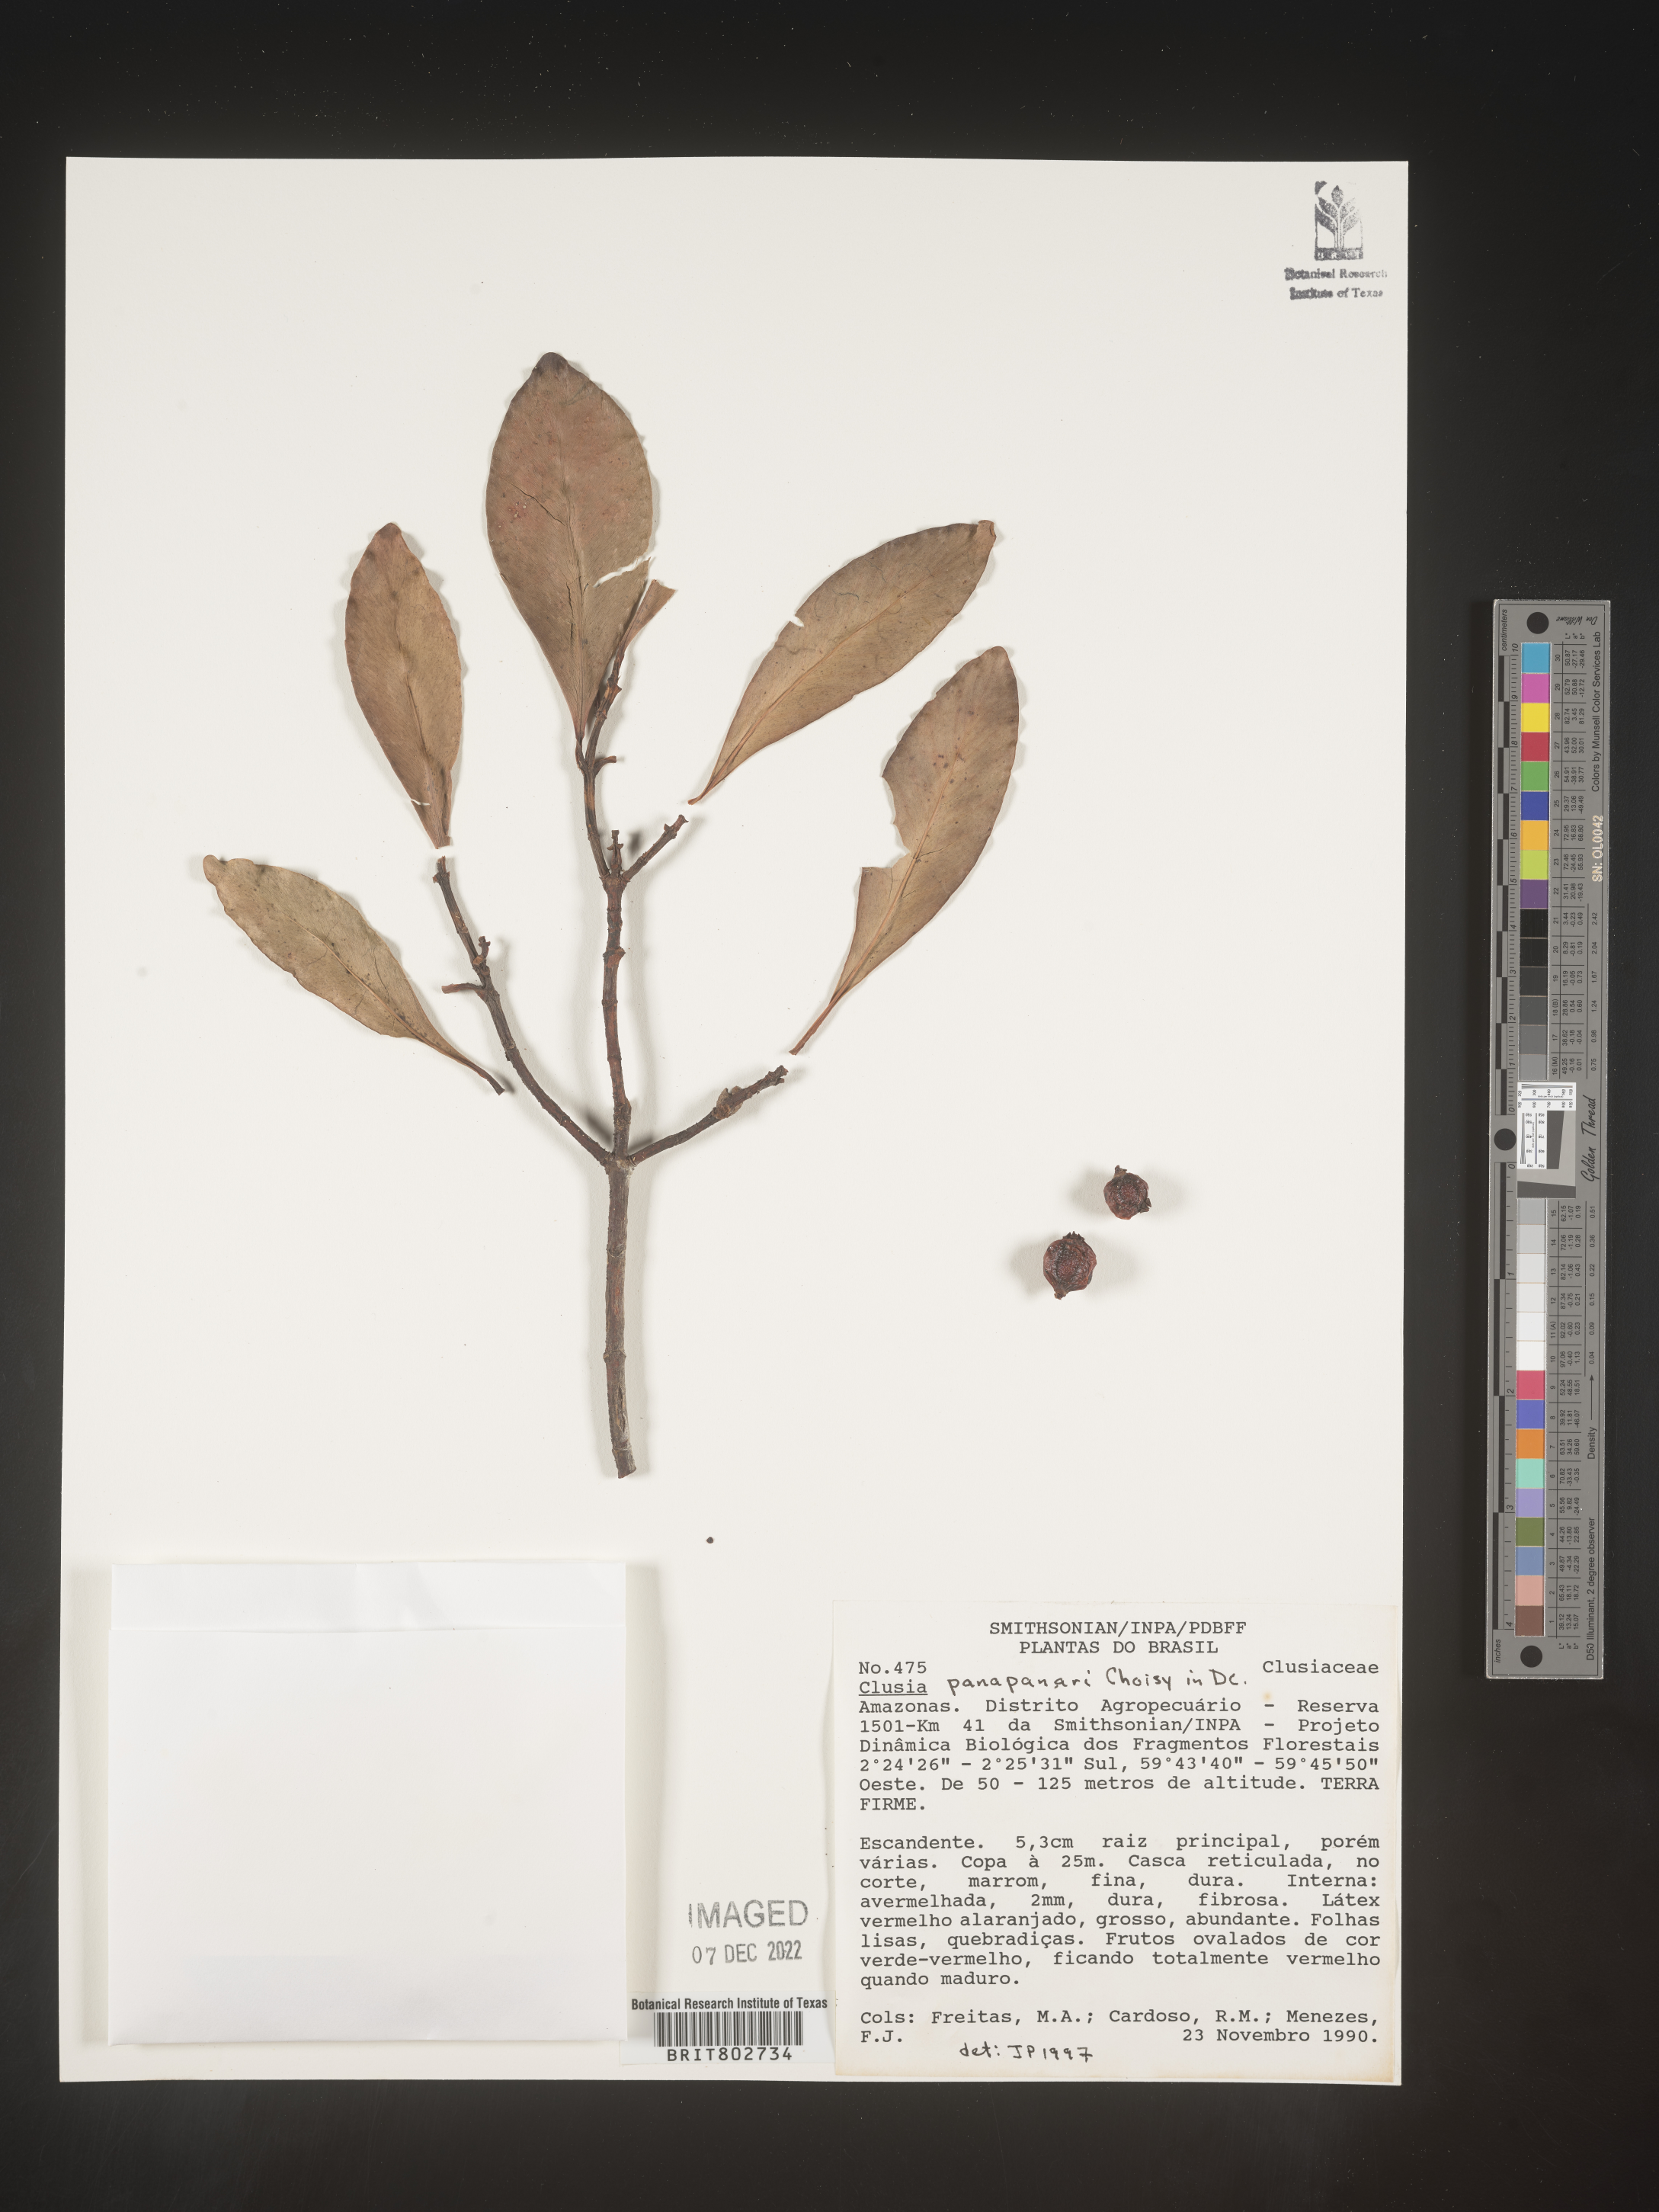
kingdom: Plantae
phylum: Tracheophyta
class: Magnoliopsida
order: Malpighiales
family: Clusiaceae
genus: Clusia
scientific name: Clusia panapanari
